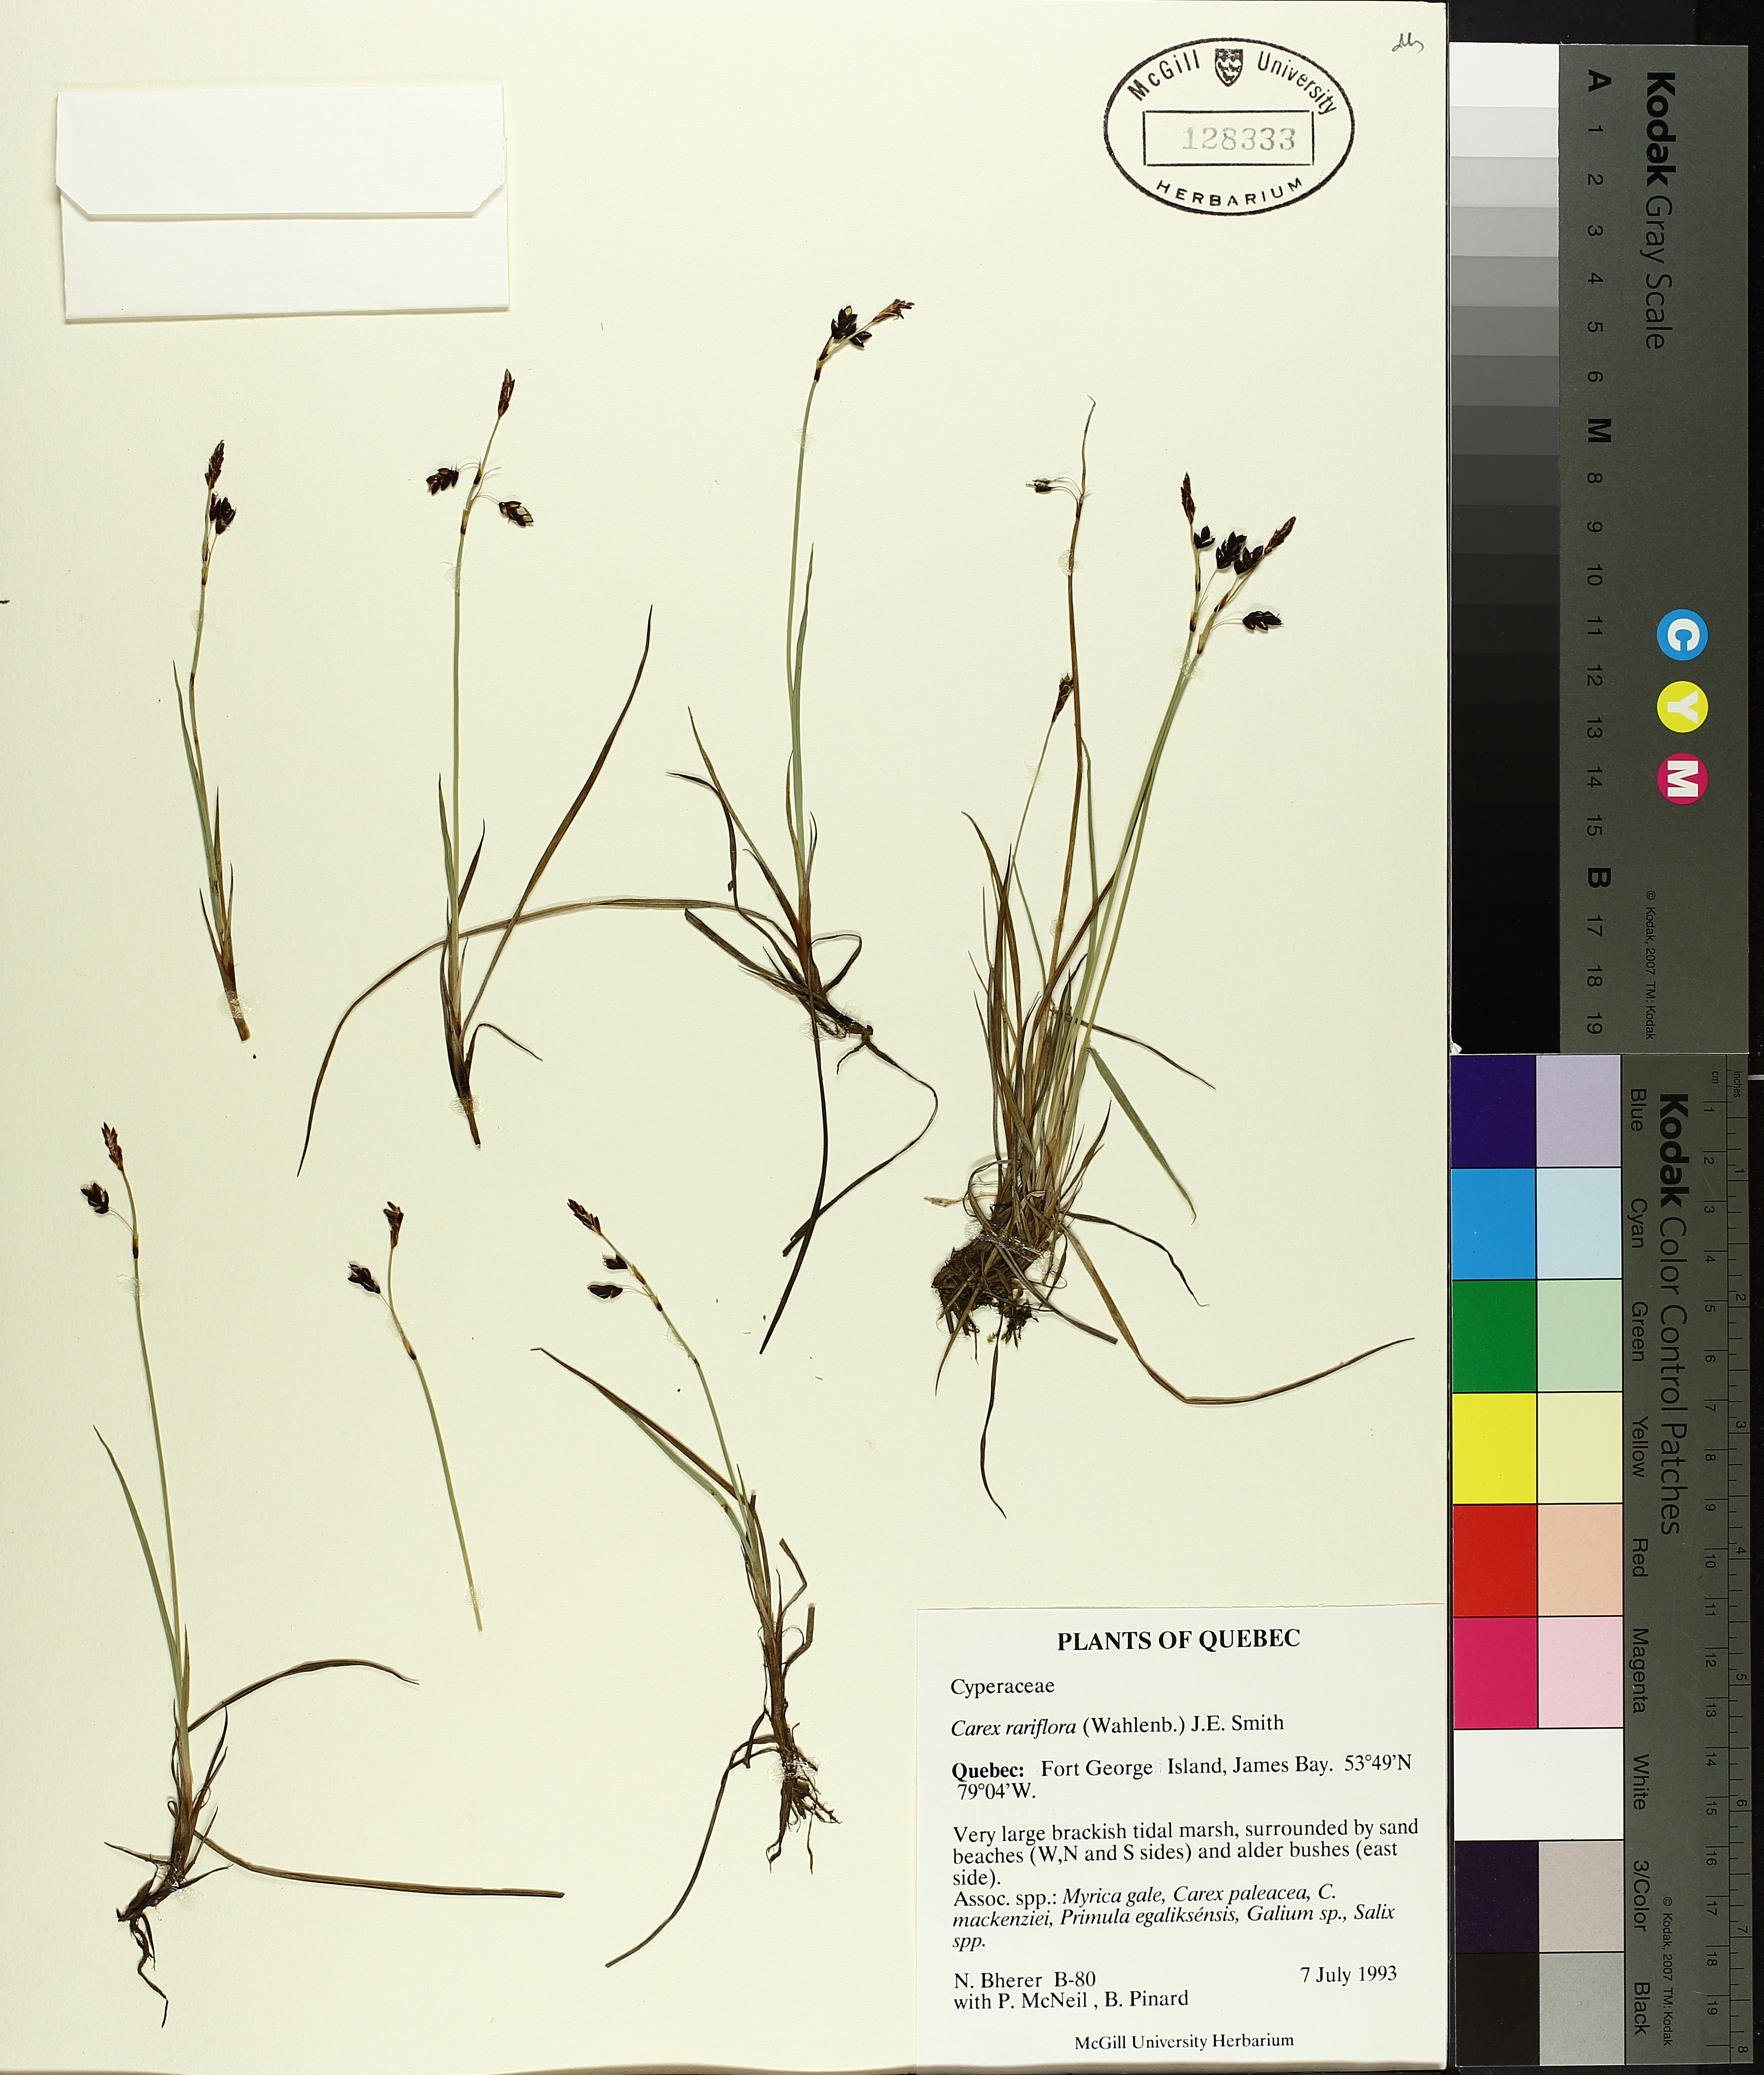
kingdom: Plantae
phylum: Tracheophyta
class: Liliopsida
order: Poales
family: Cyperaceae
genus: Carex
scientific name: Carex rariflora
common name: Loose-flowered alpine sedge
